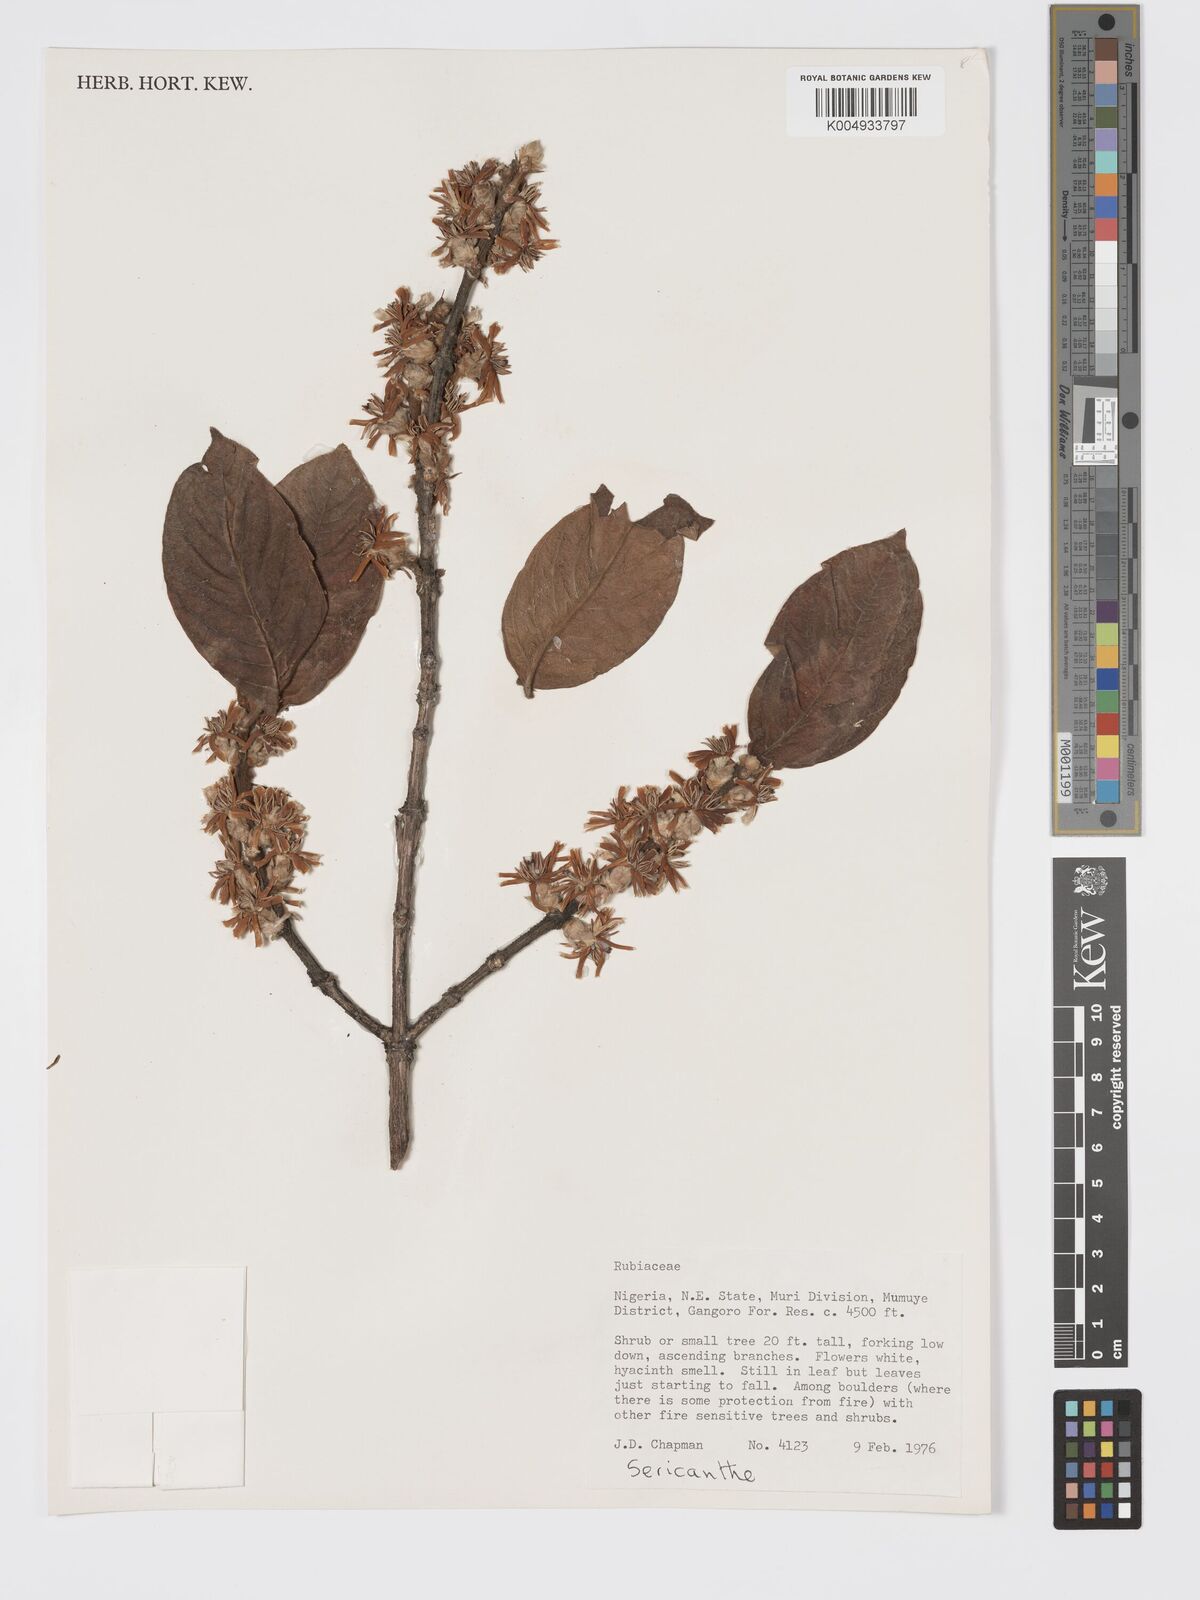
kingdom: Plantae
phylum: Tracheophyta
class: Magnoliopsida
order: Gentianales
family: Rubiaceae
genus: Sericanthe
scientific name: Sericanthe
